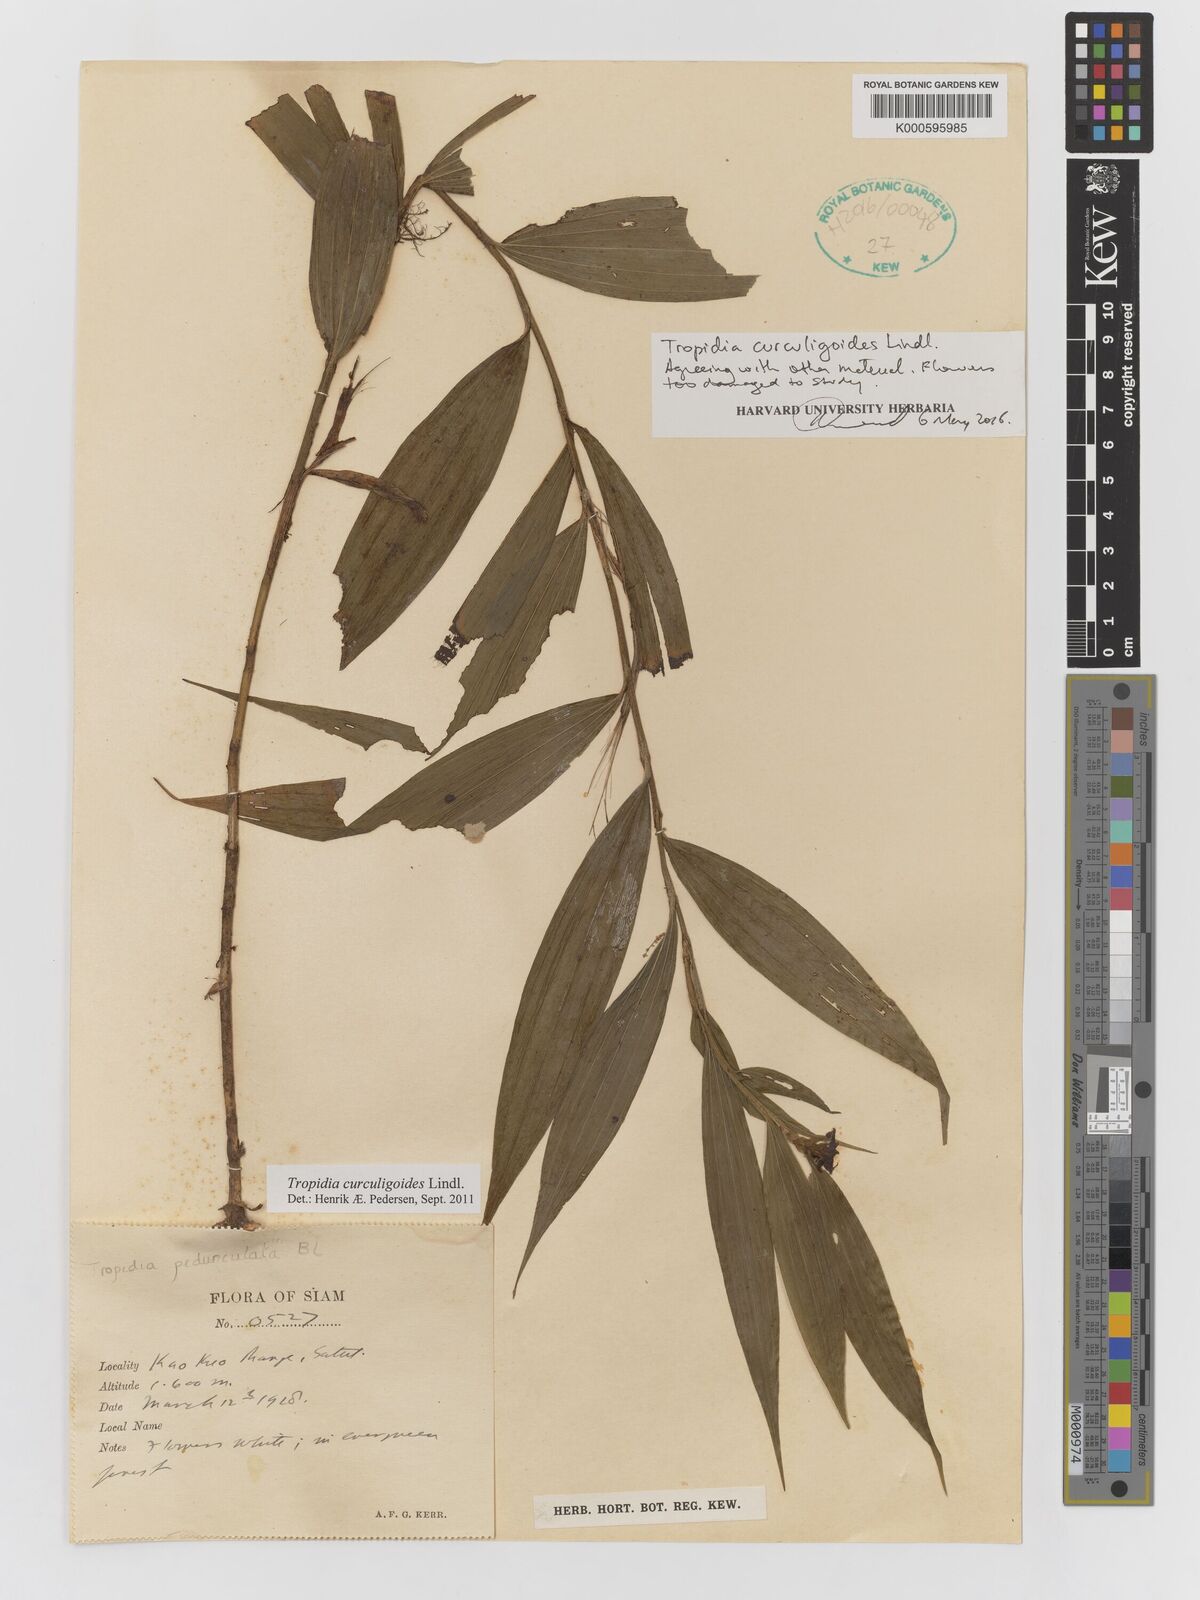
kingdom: Plantae
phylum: Tracheophyta
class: Liliopsida
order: Asparagales
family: Orchidaceae
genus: Tropidia
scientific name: Tropidia curculigoides
